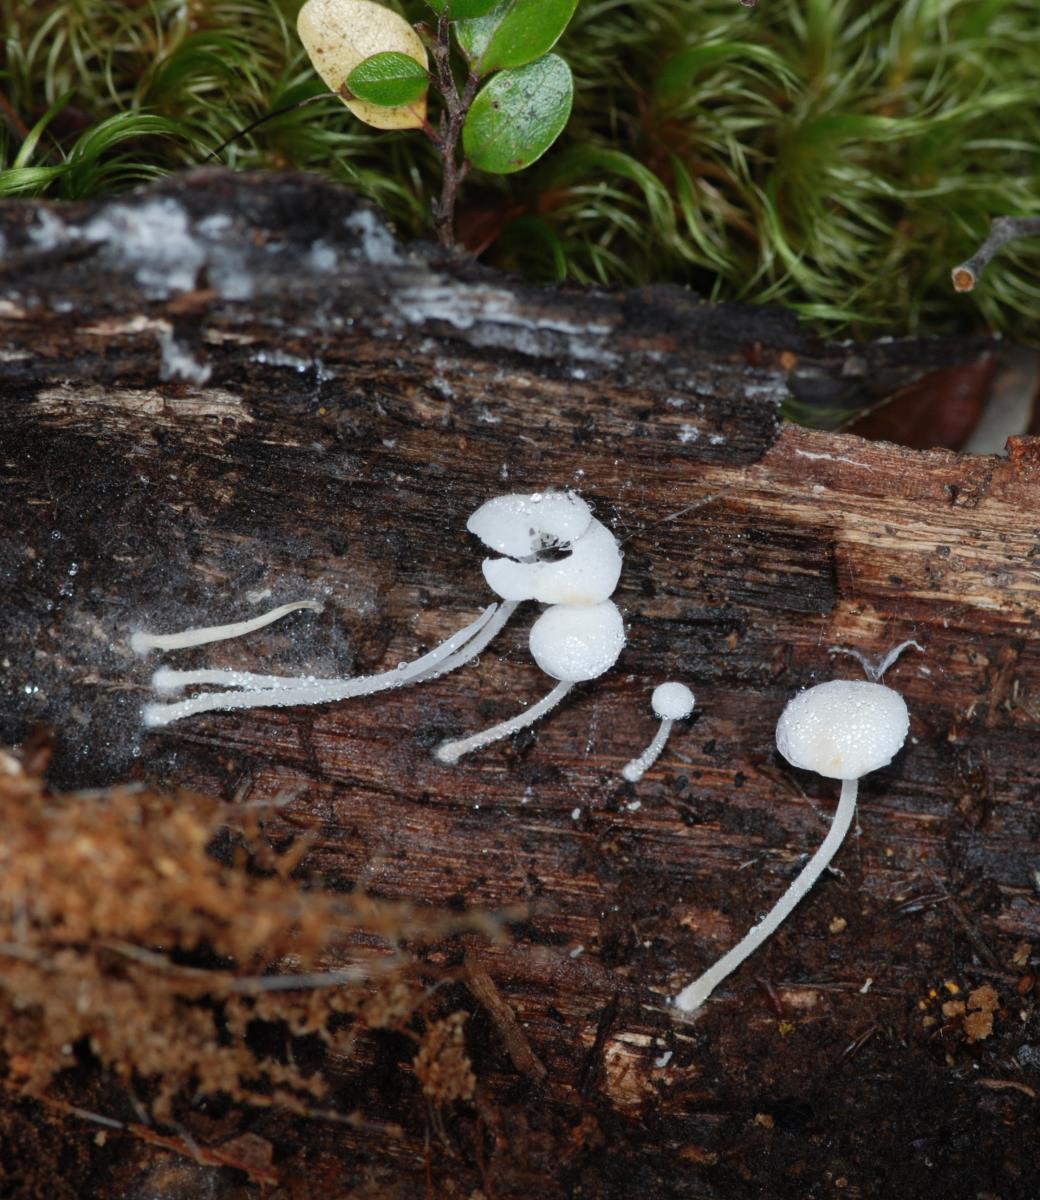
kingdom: Fungi
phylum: Basidiomycota
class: Agaricomycetes
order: Agaricales
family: Mycenaceae
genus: Hemimycena
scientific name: Hemimycena tortuosa
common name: Dewdrop bonnet
